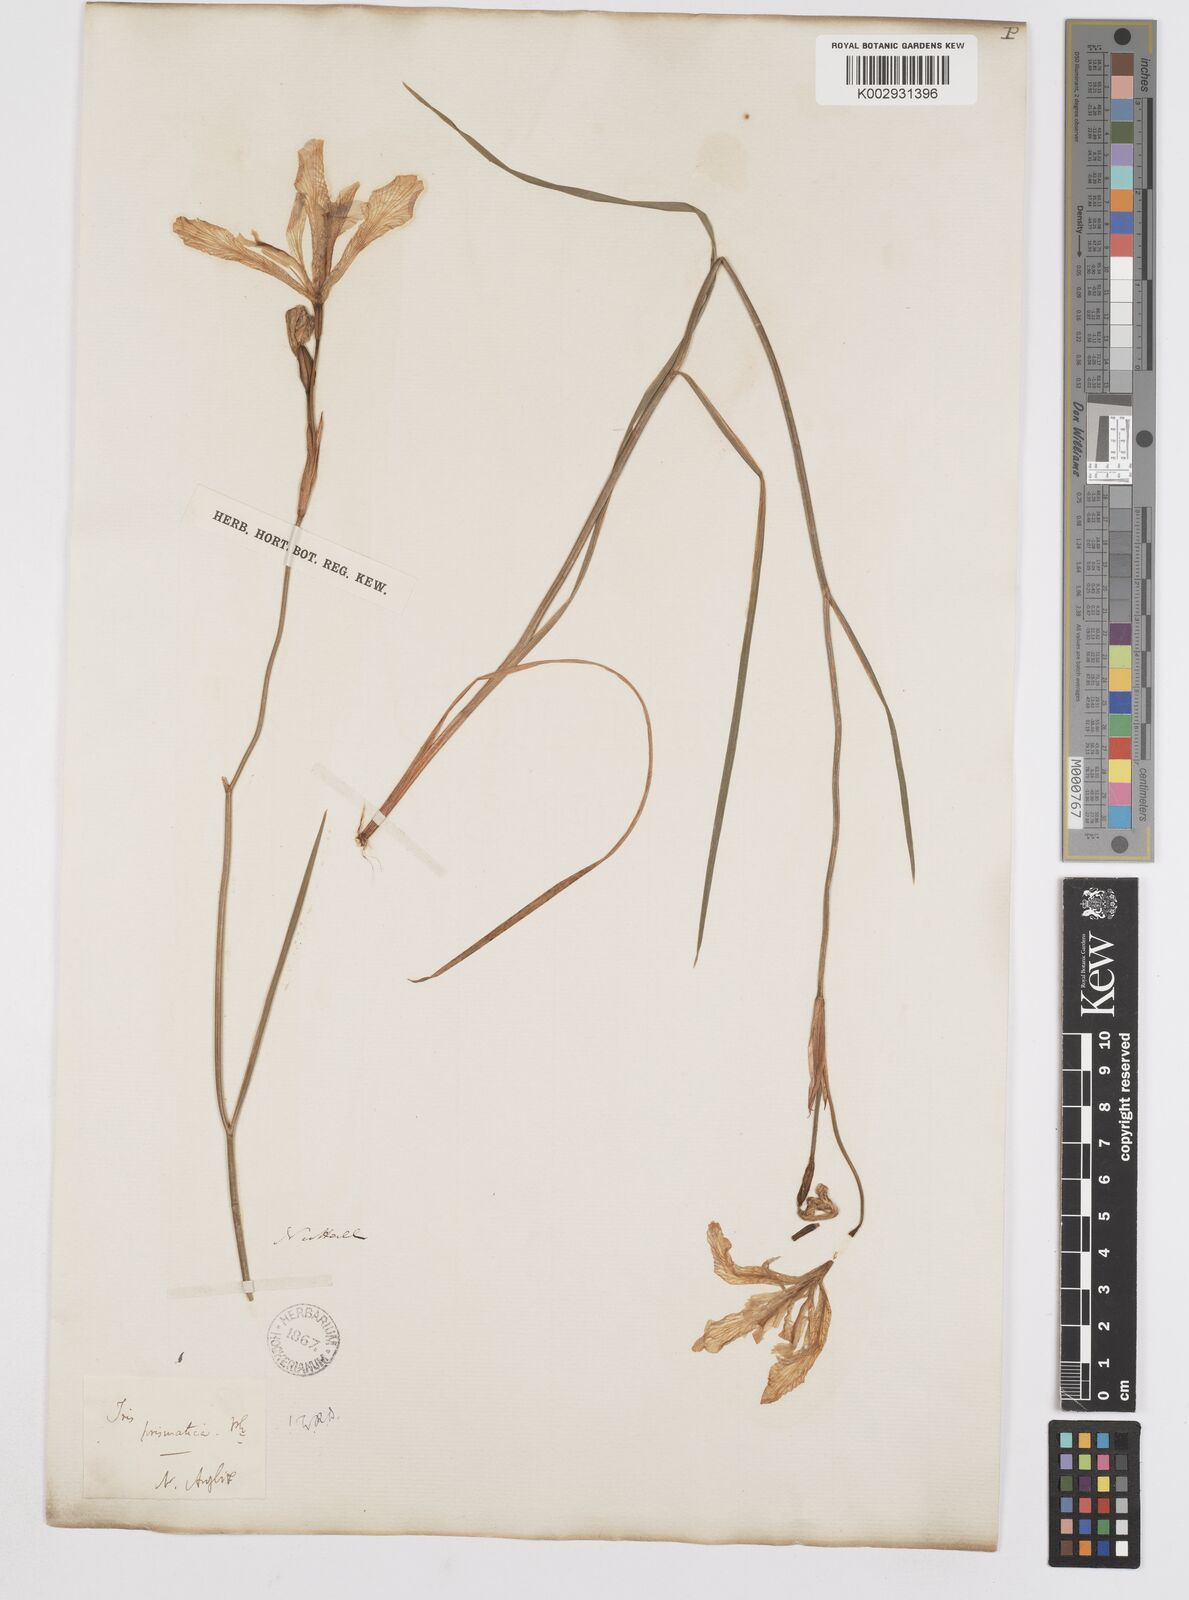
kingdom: Plantae
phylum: Tracheophyta
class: Liliopsida
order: Asparagales
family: Iridaceae
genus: Iris
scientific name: Iris prismatica
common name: Slender blue flag
